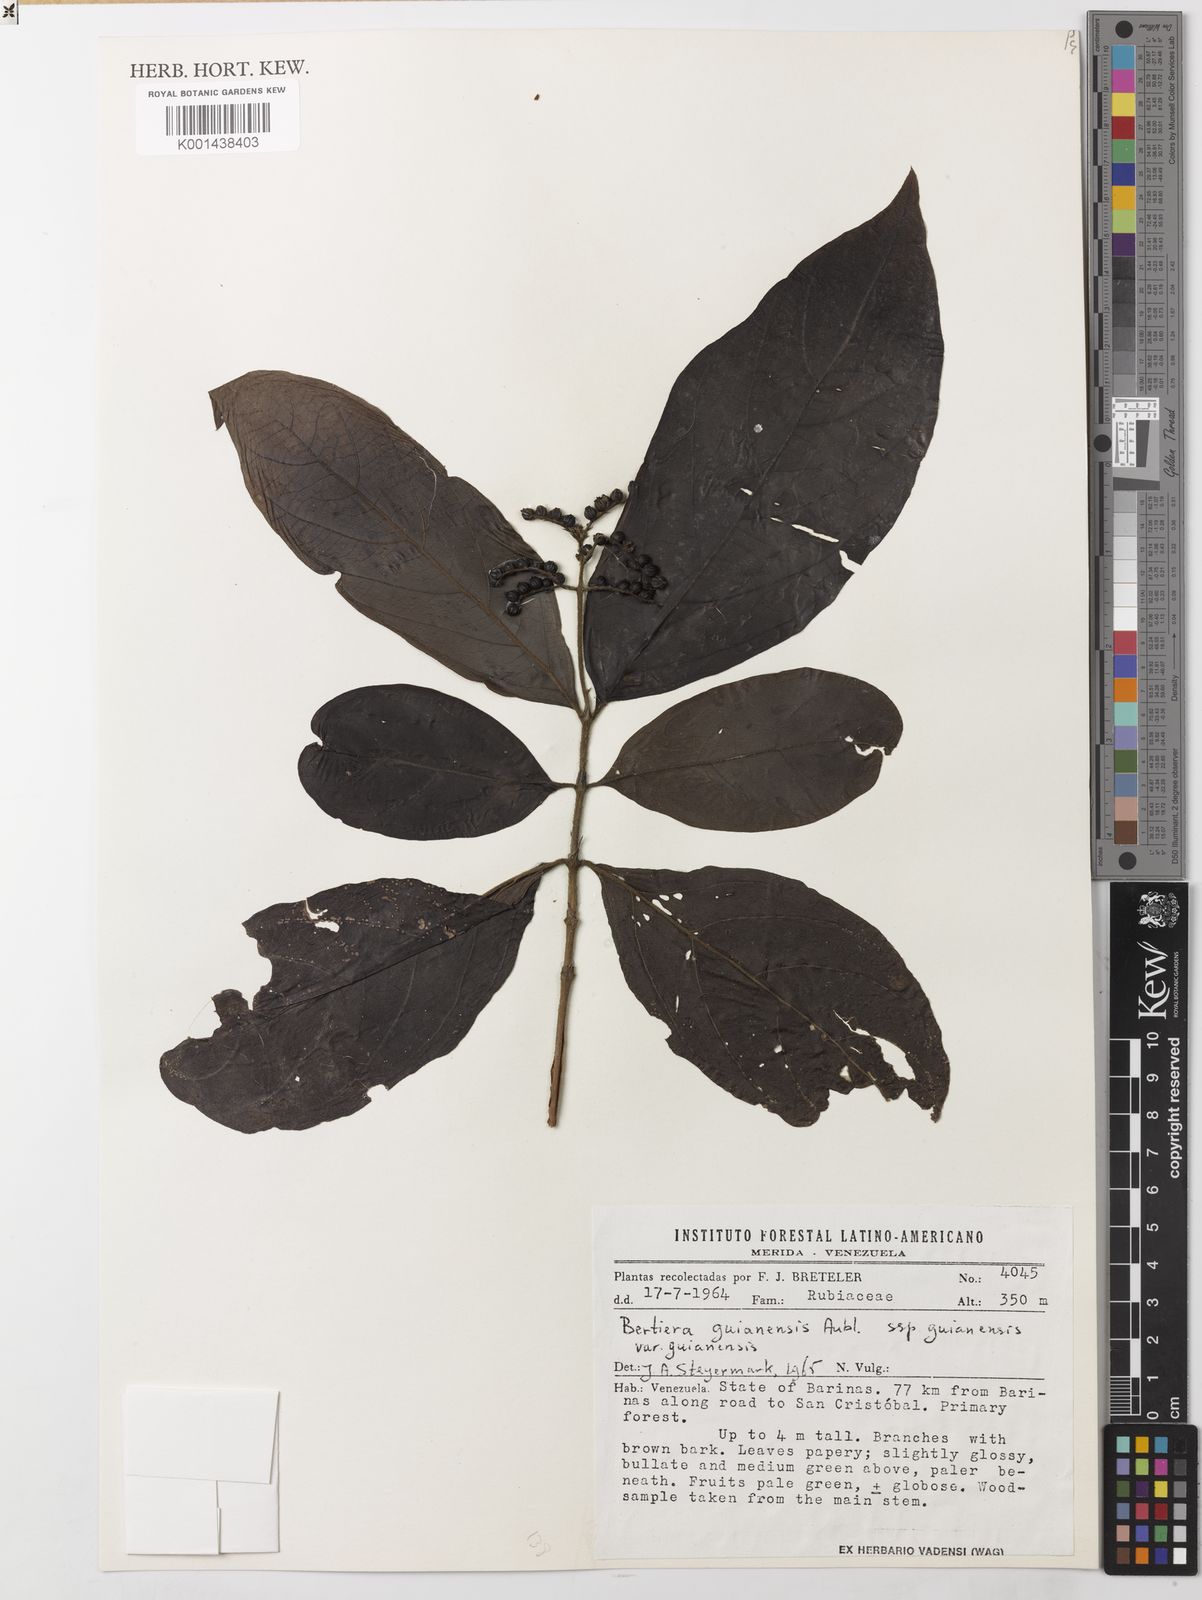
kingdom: Plantae
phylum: Tracheophyta
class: Magnoliopsida
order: Gentianales
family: Rubiaceae
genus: Bertiera
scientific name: Bertiera guianensis
